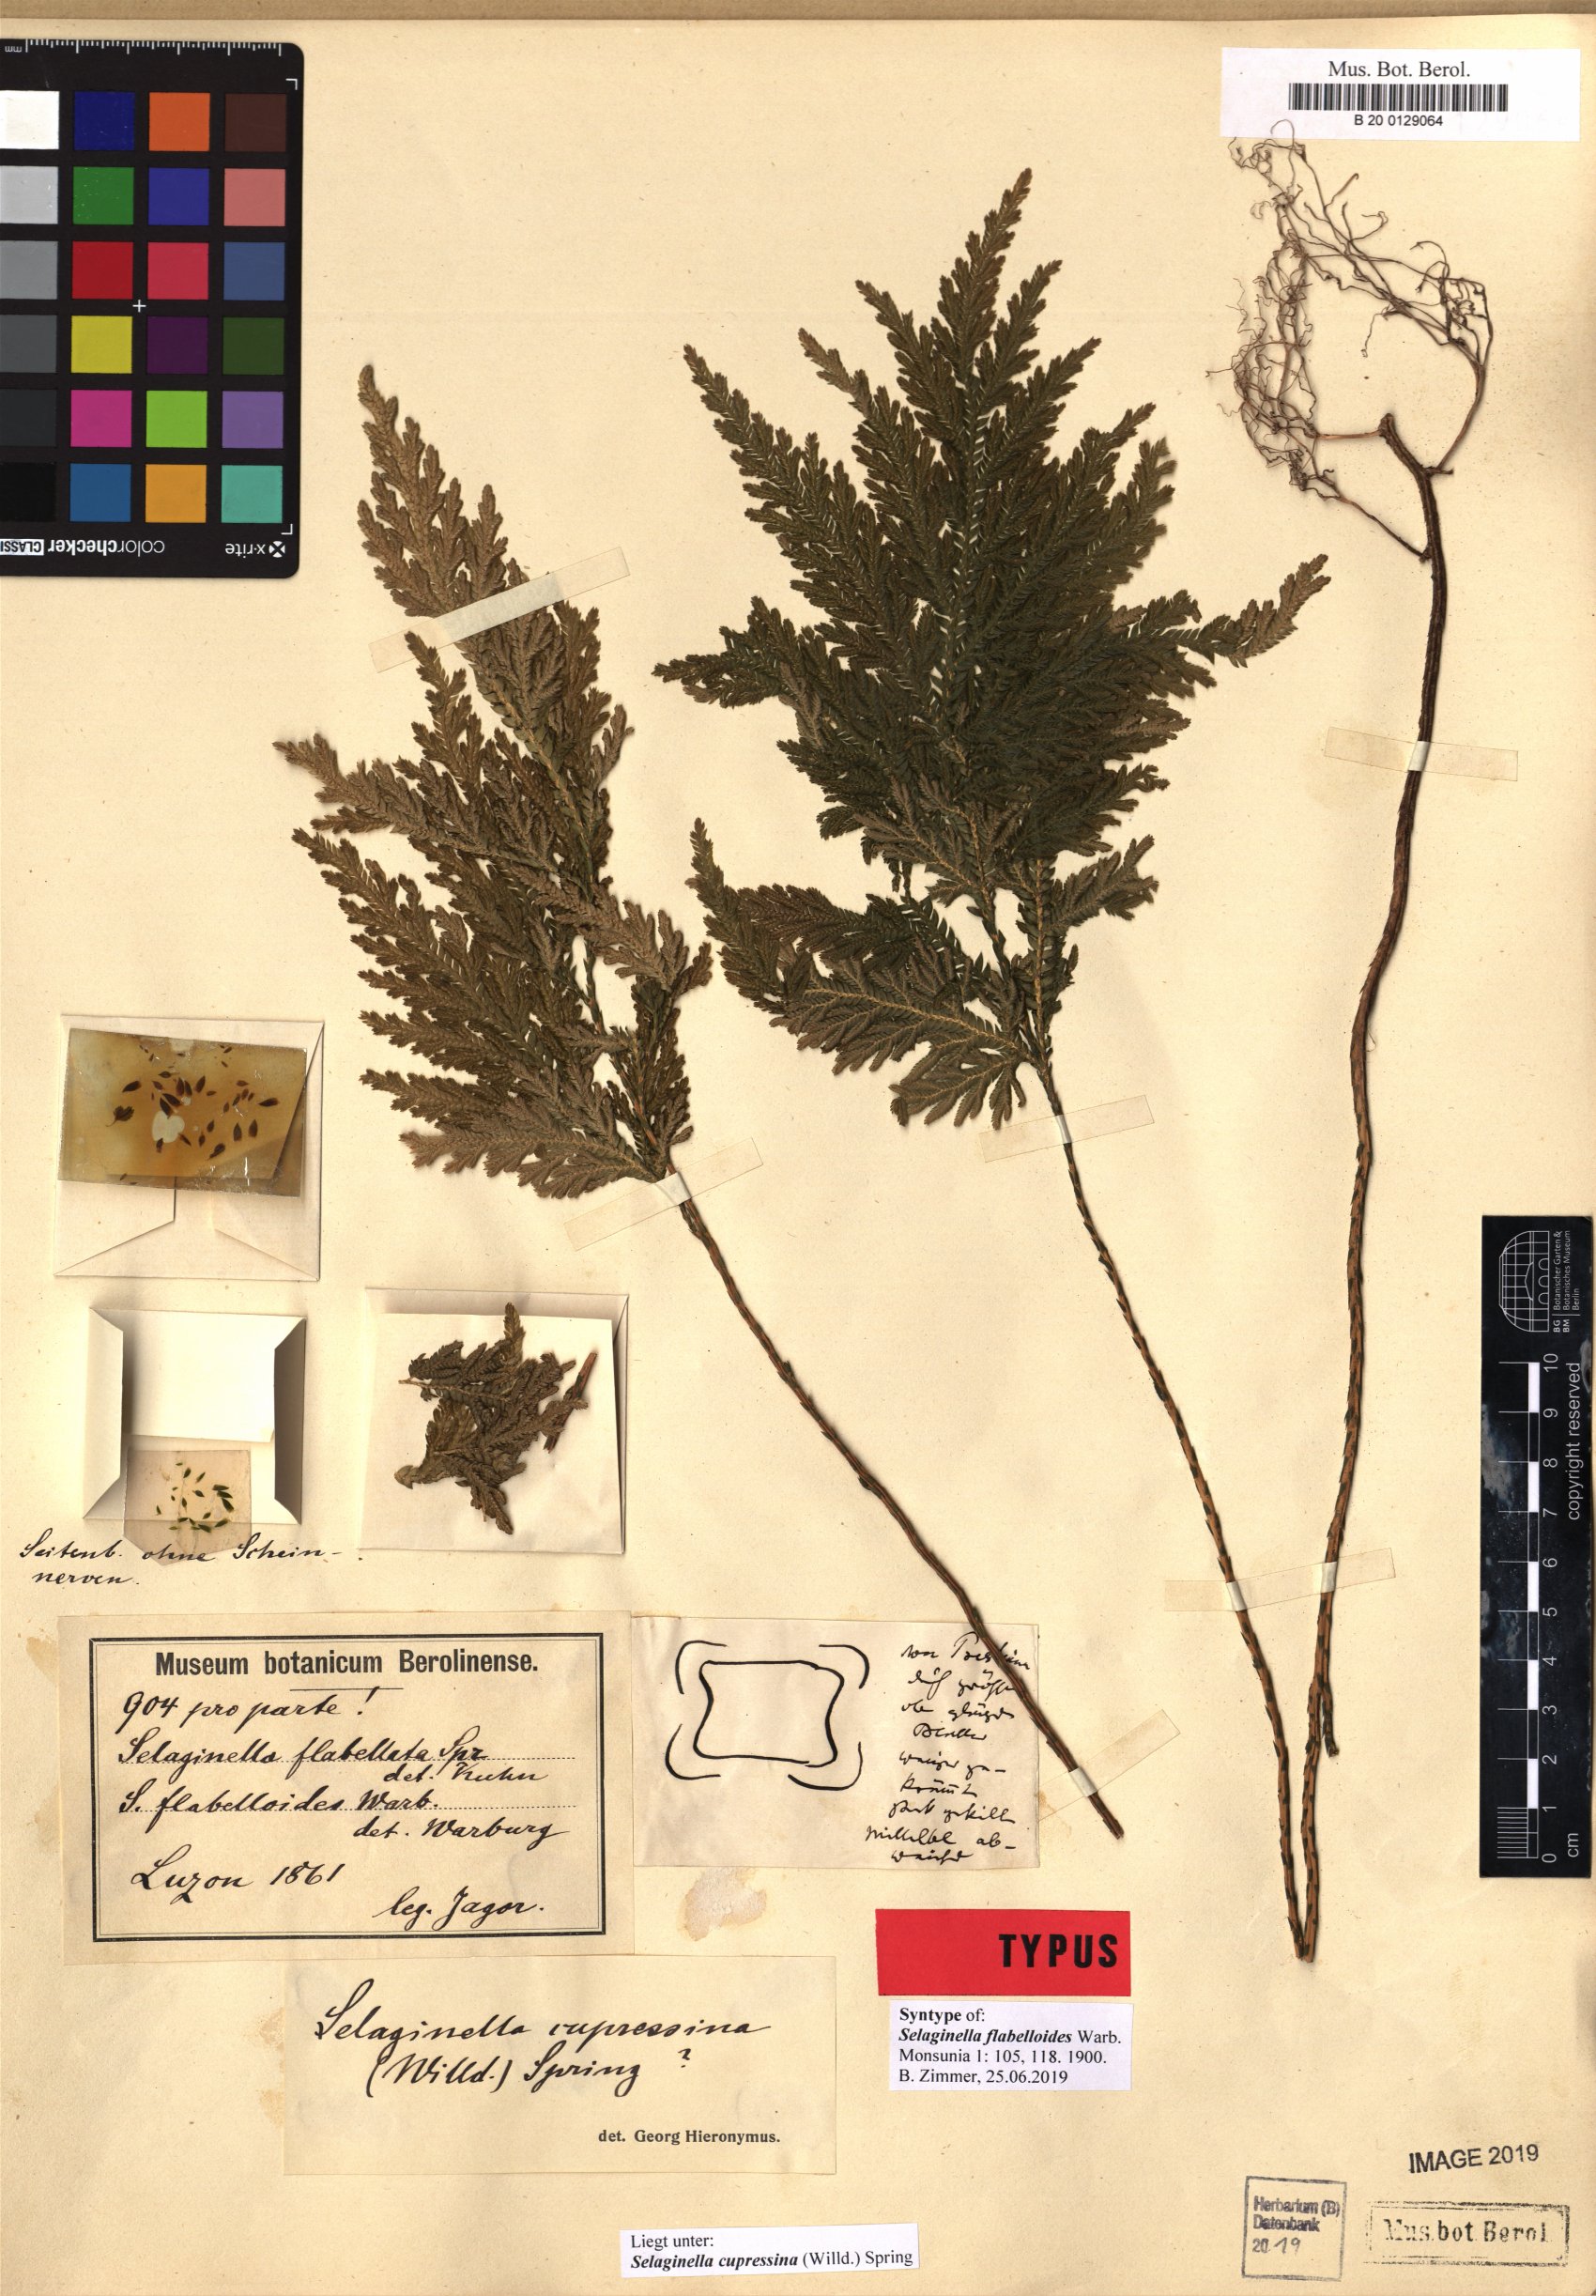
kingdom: Plantae
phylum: Tracheophyta
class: Lycopodiopsida
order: Selaginellales
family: Selaginellaceae
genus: Selaginella
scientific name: Selaginella cupressina
